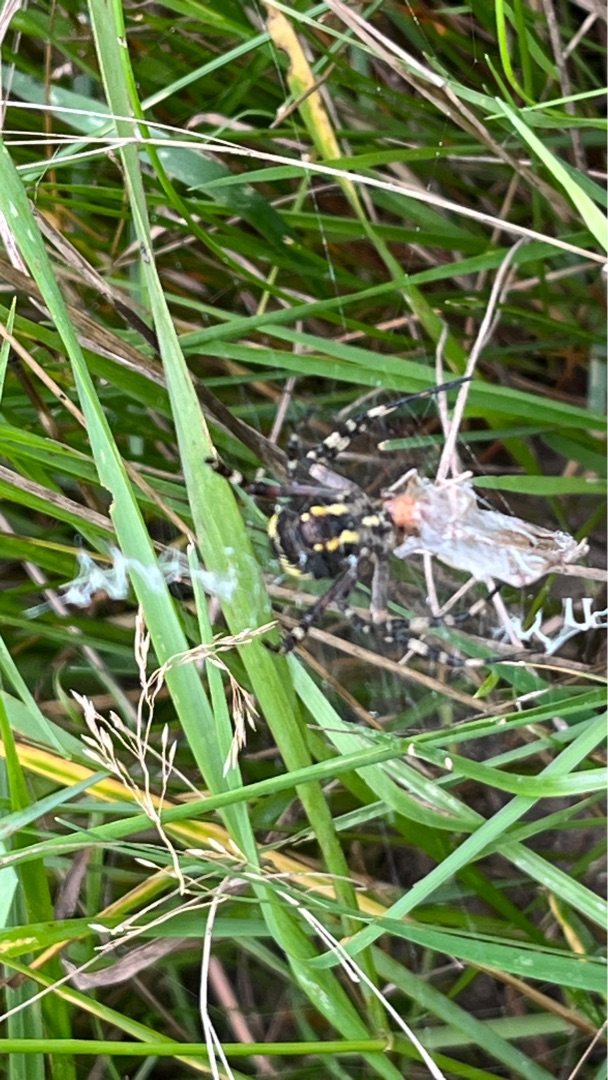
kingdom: Animalia
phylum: Arthropoda
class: Arachnida
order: Araneae
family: Araneidae
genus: Argiope
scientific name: Argiope bruennichi
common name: Hvepseedderkop
